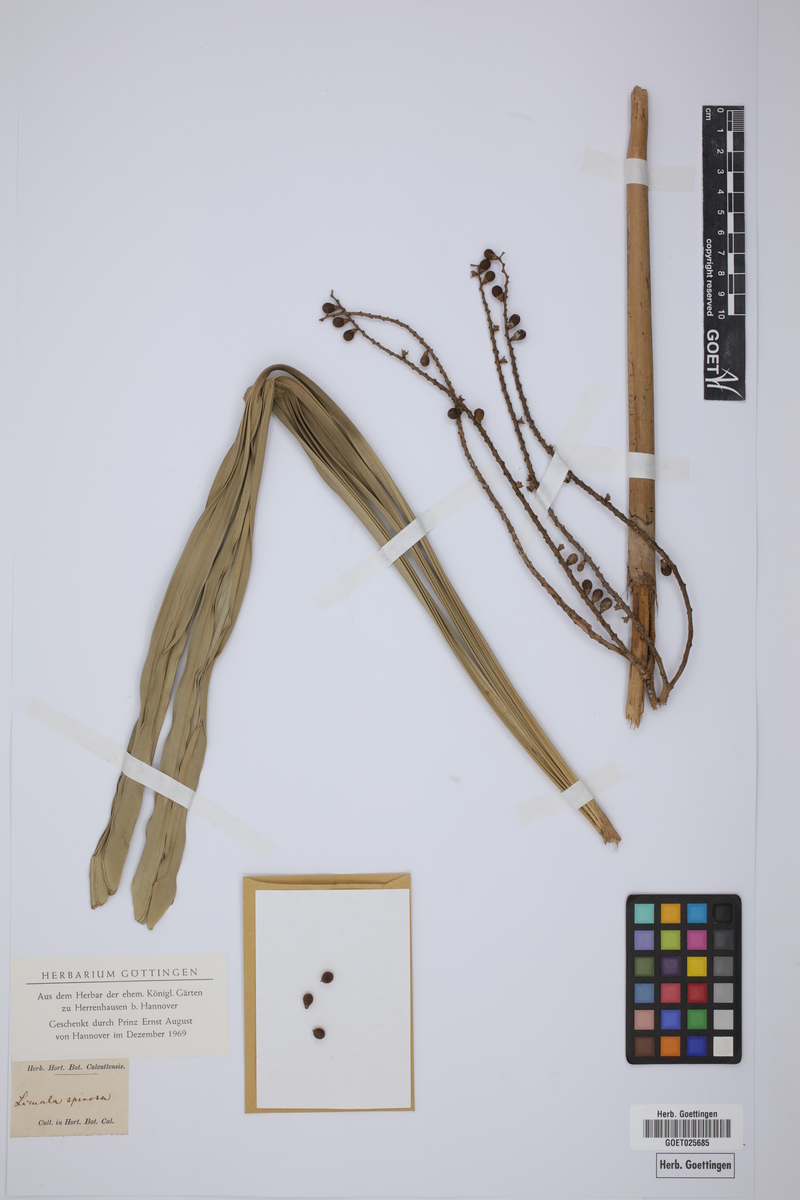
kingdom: Plantae
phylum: Tracheophyta
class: Liliopsida
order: Arecales
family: Arecaceae
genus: Licuala
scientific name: Licuala spinosa
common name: Mangrove fan palm
